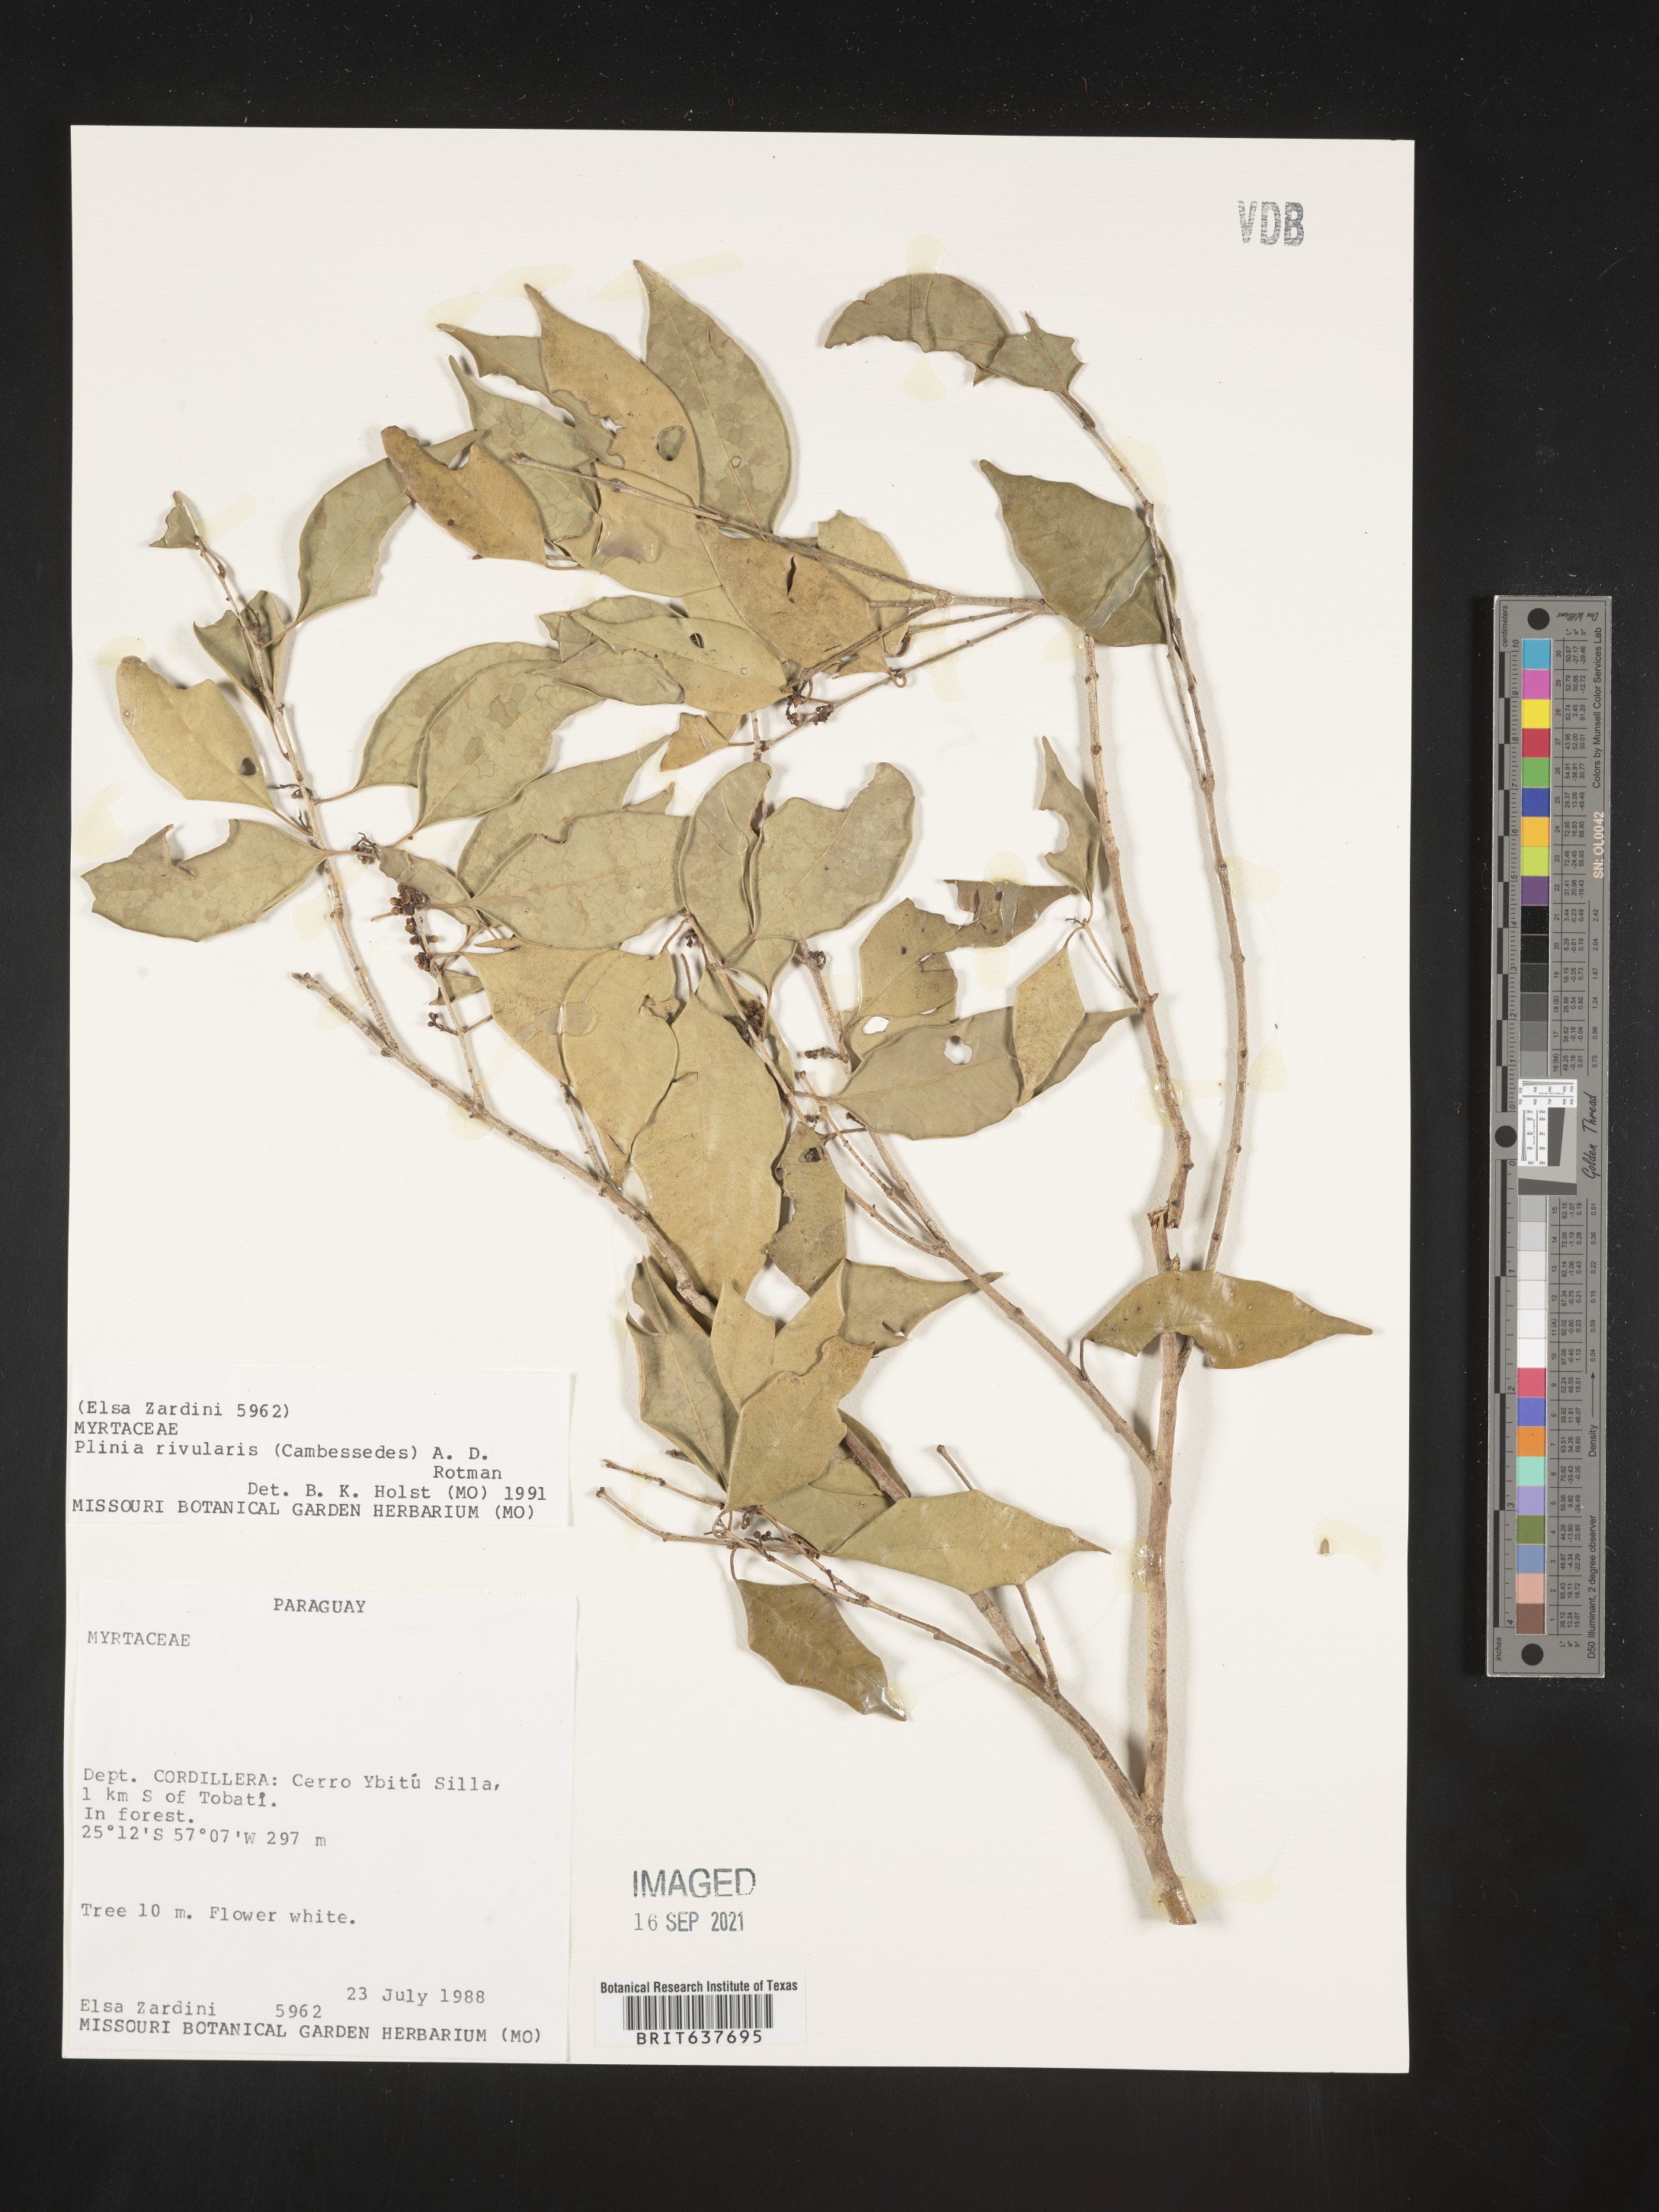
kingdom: Plantae
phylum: Tracheophyta
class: Magnoliopsida
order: Myrtales
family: Myrtaceae
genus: Plinia
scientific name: Plinia
